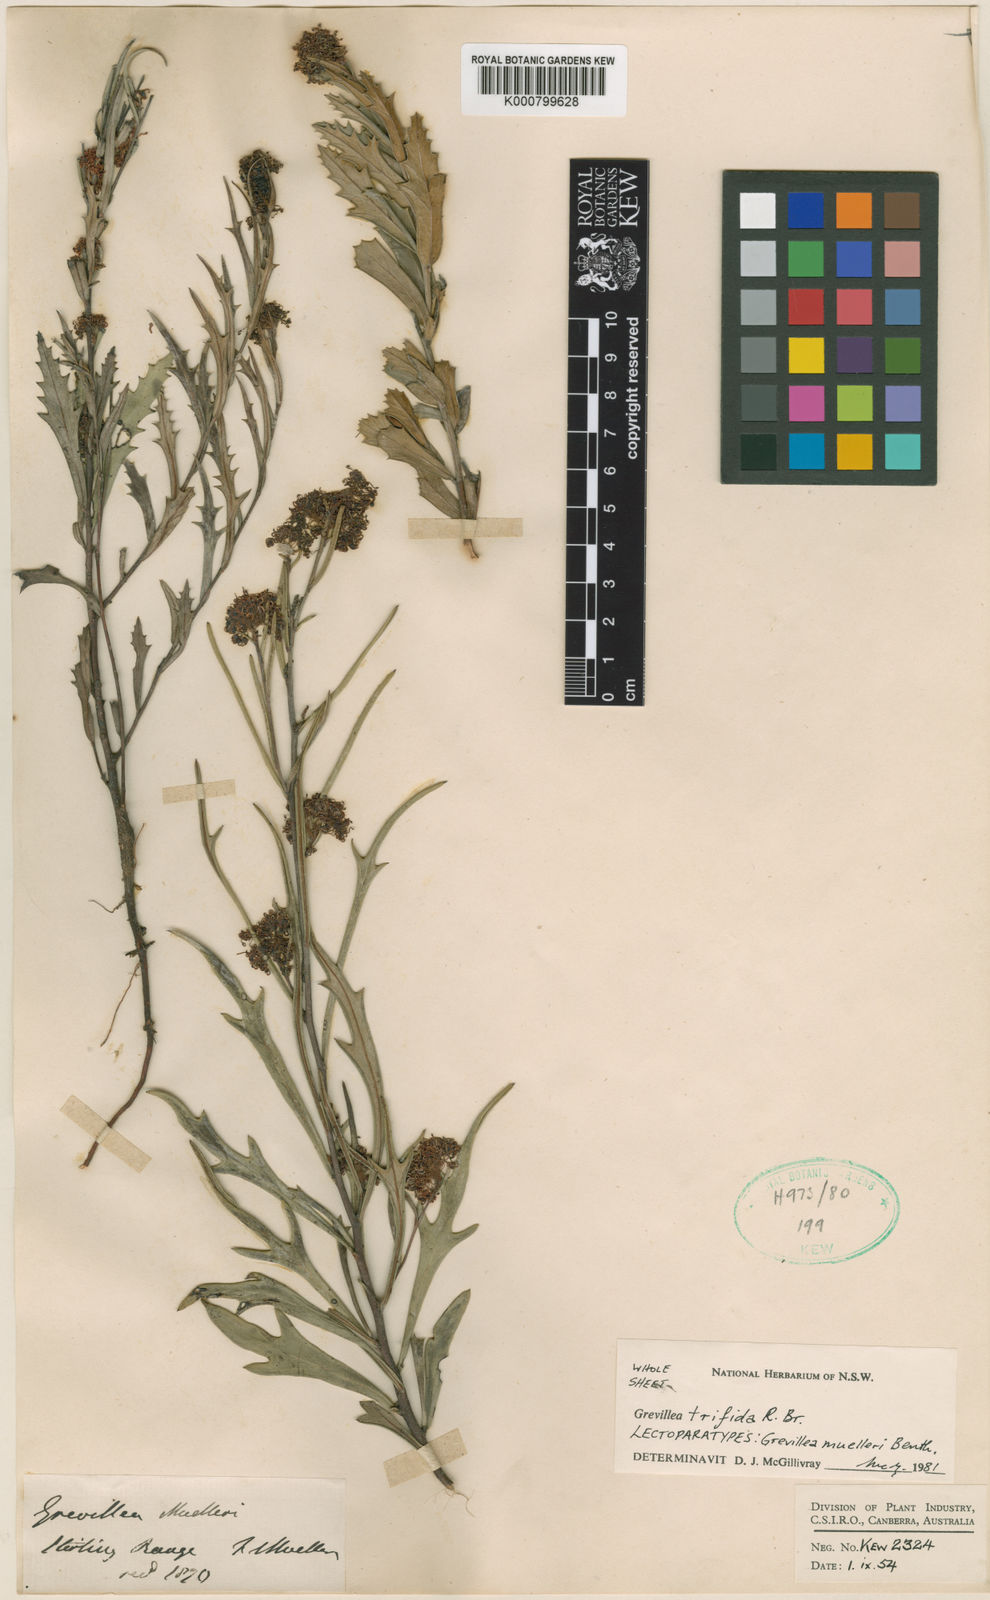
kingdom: Plantae
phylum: Tracheophyta
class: Magnoliopsida
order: Proteales
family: Proteaceae
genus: Grevillea
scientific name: Grevillea muelleri
